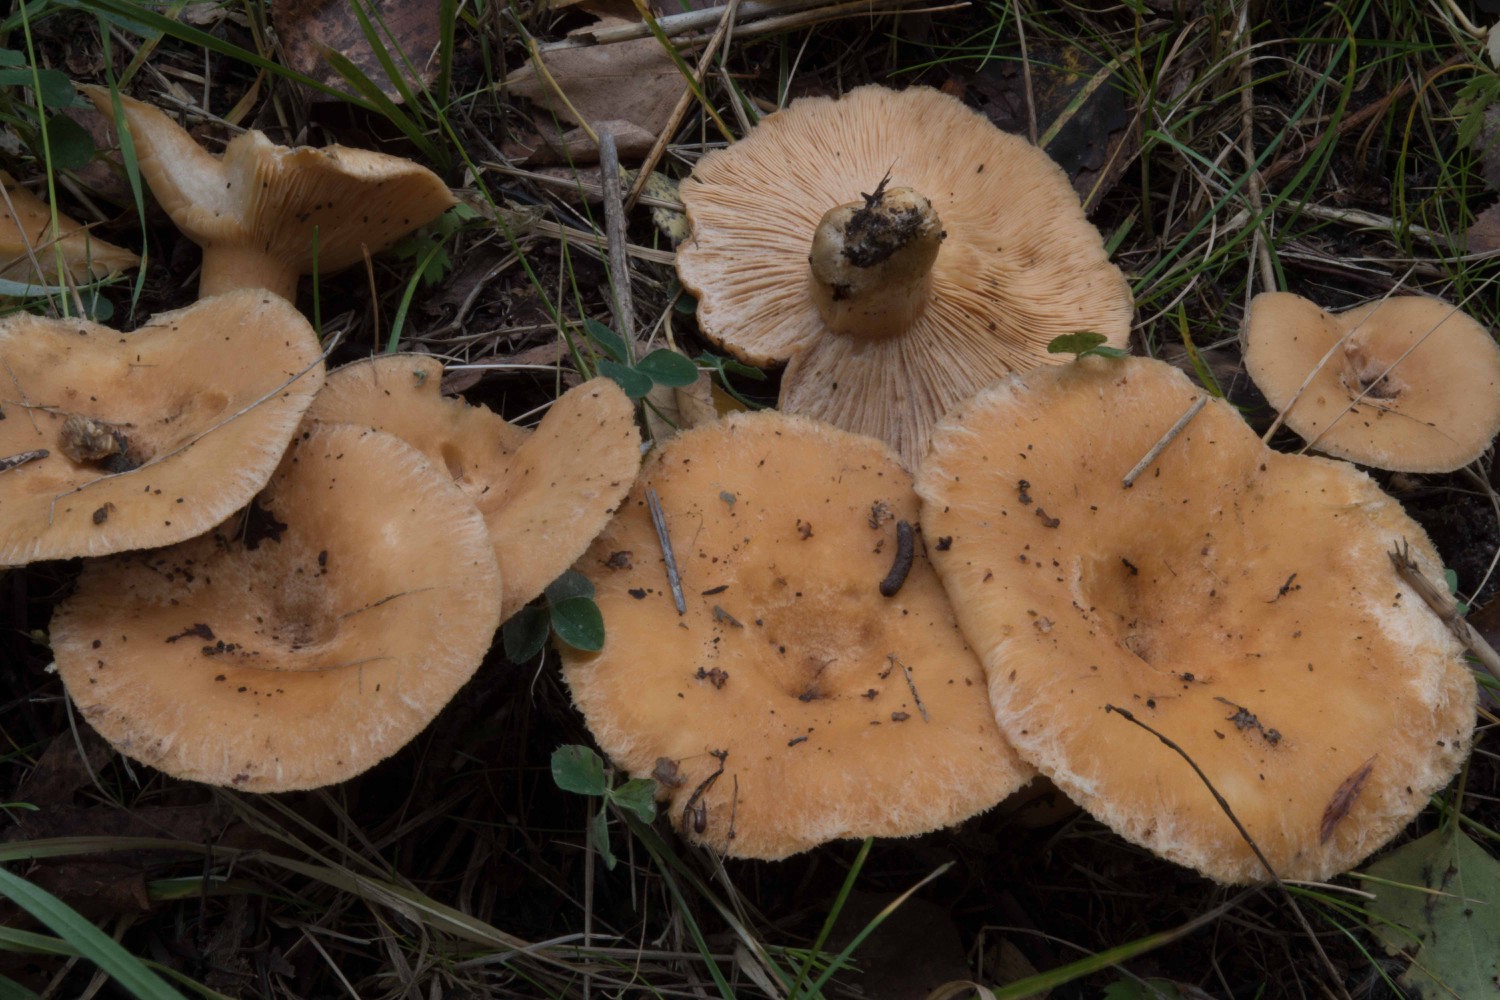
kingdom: Fungi
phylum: Basidiomycota
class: Agaricomycetes
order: Russulales
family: Russulaceae
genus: Lactarius
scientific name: Lactarius pubescens
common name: dunet mælkehat
